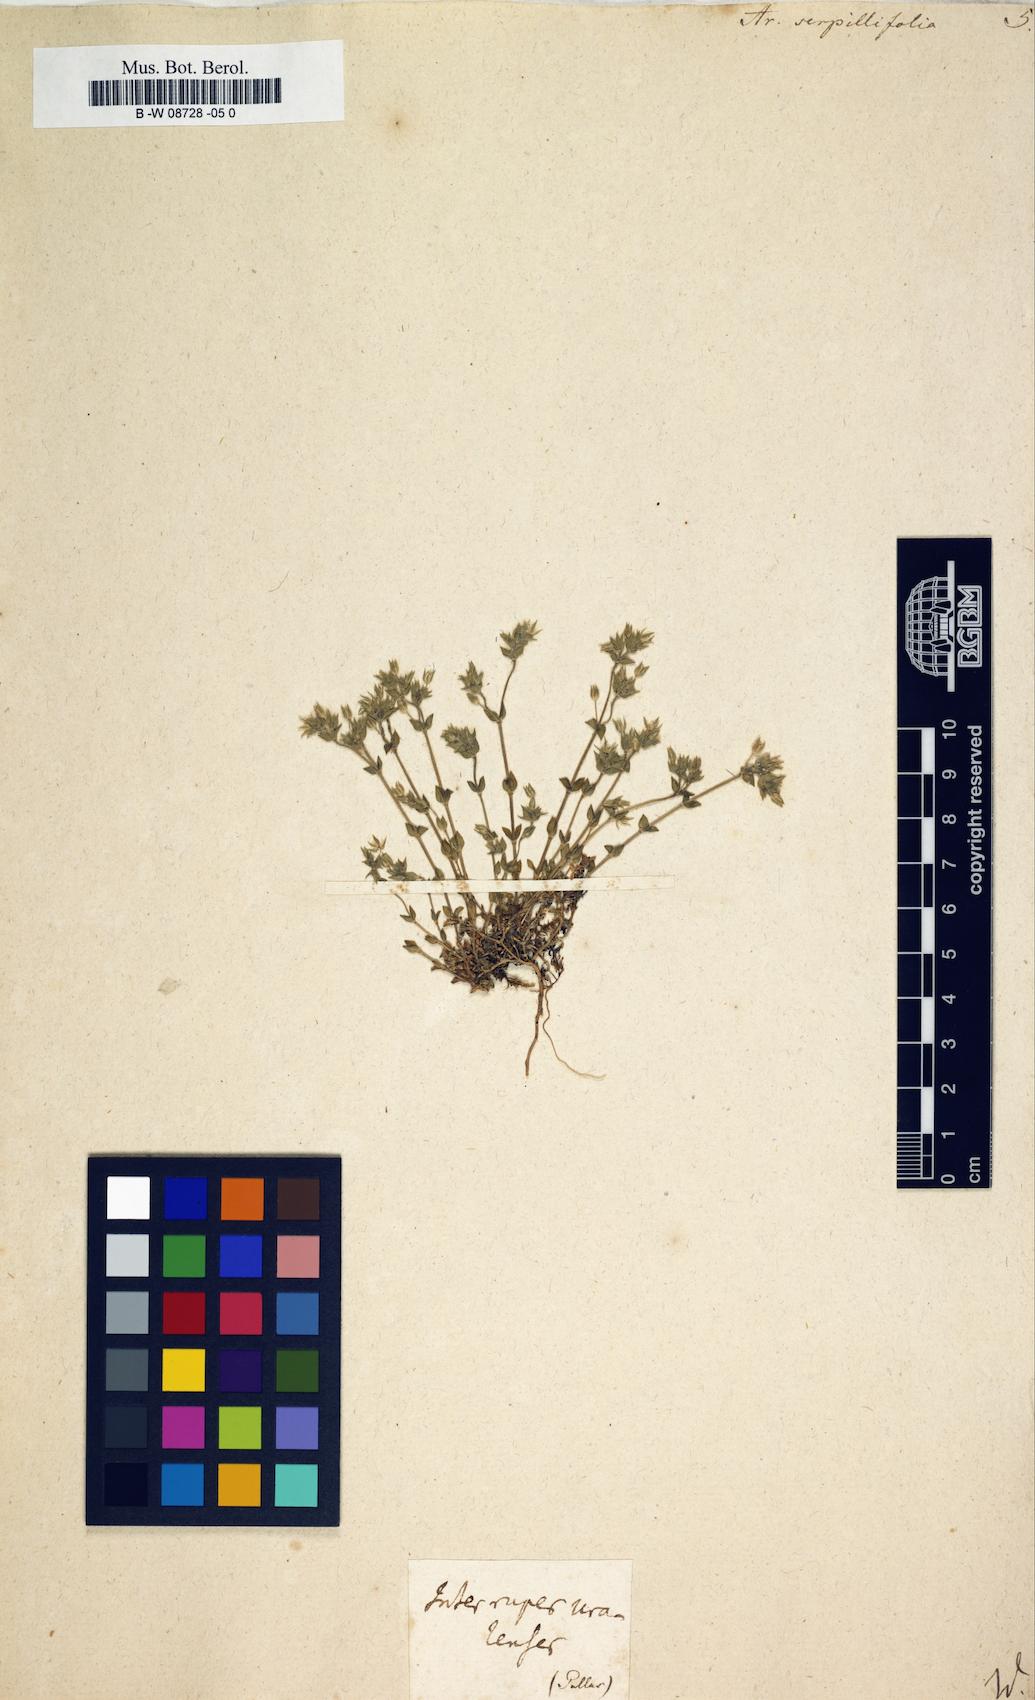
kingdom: Plantae
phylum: Tracheophyta
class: Magnoliopsida
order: Caryophyllales
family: Caryophyllaceae
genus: Arenaria
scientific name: Arenaria serpyllifolia
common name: Thyme-leaved sandwort
